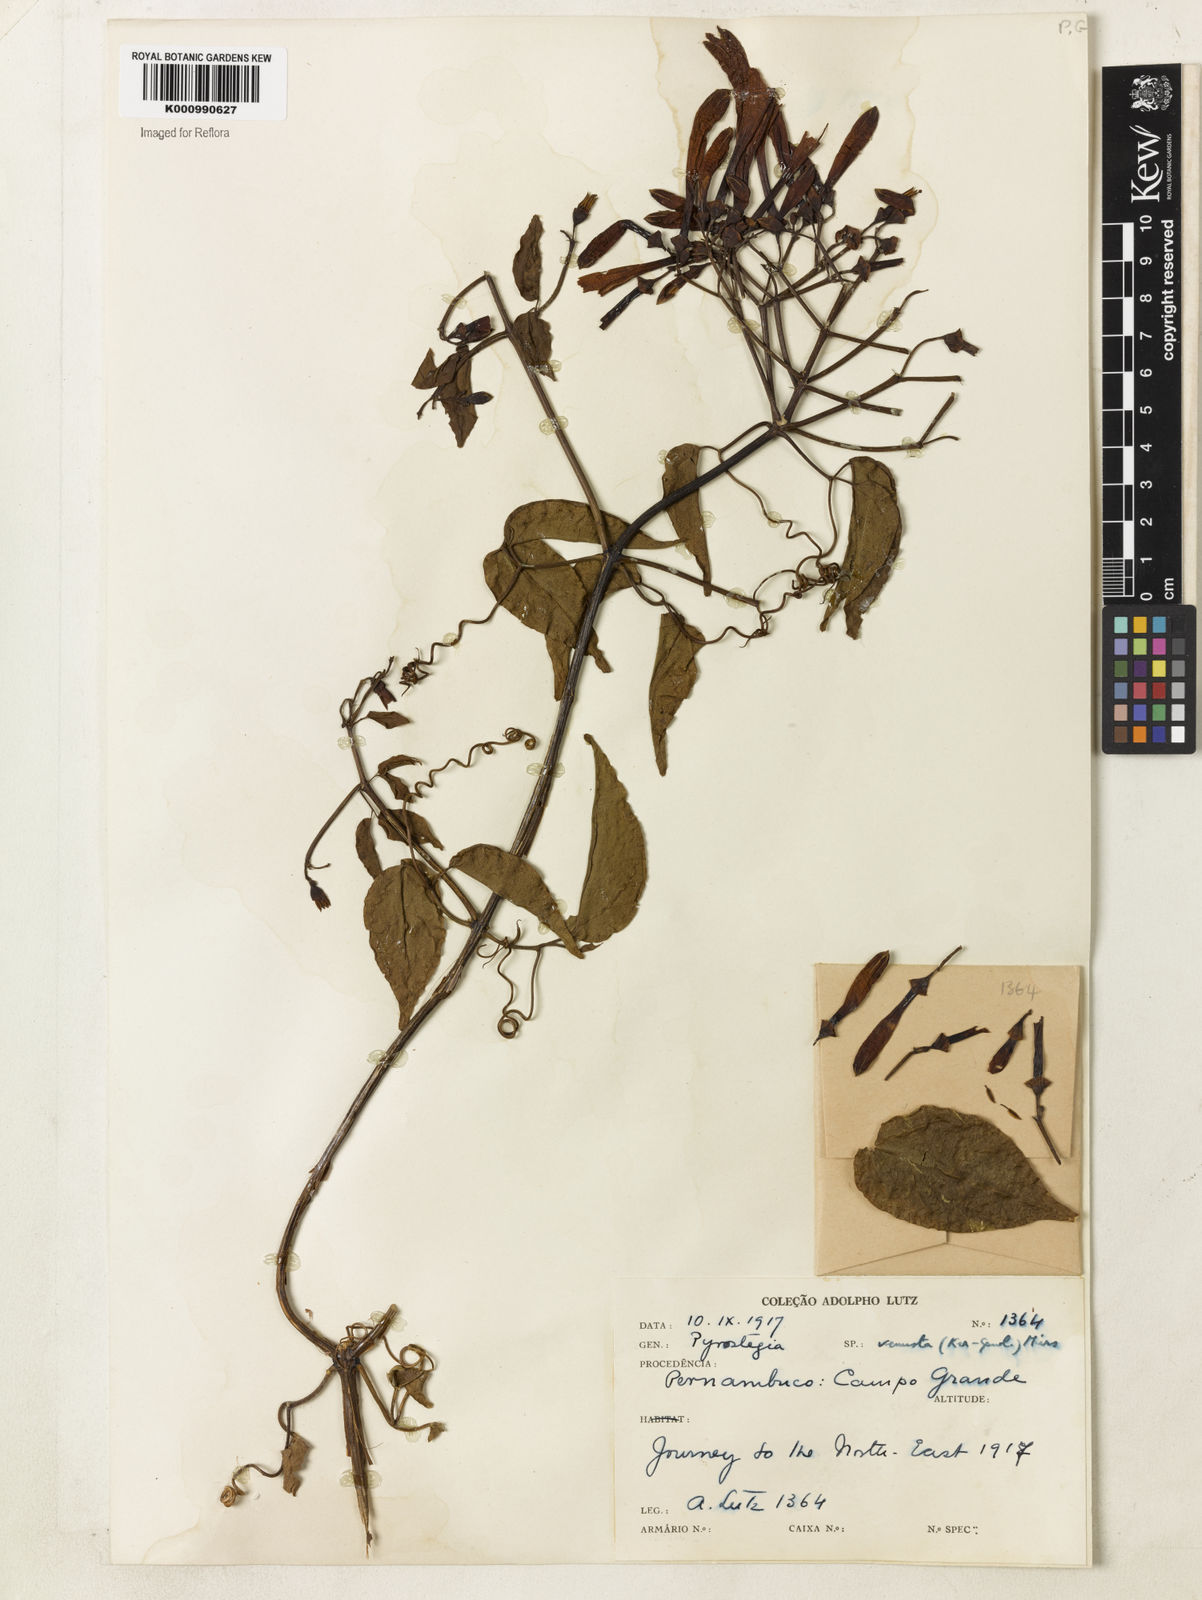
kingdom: Plantae
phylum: Tracheophyta
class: Magnoliopsida
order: Lamiales
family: Bignoniaceae
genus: Pyrostegia
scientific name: Pyrostegia venusta
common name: Flamevine
